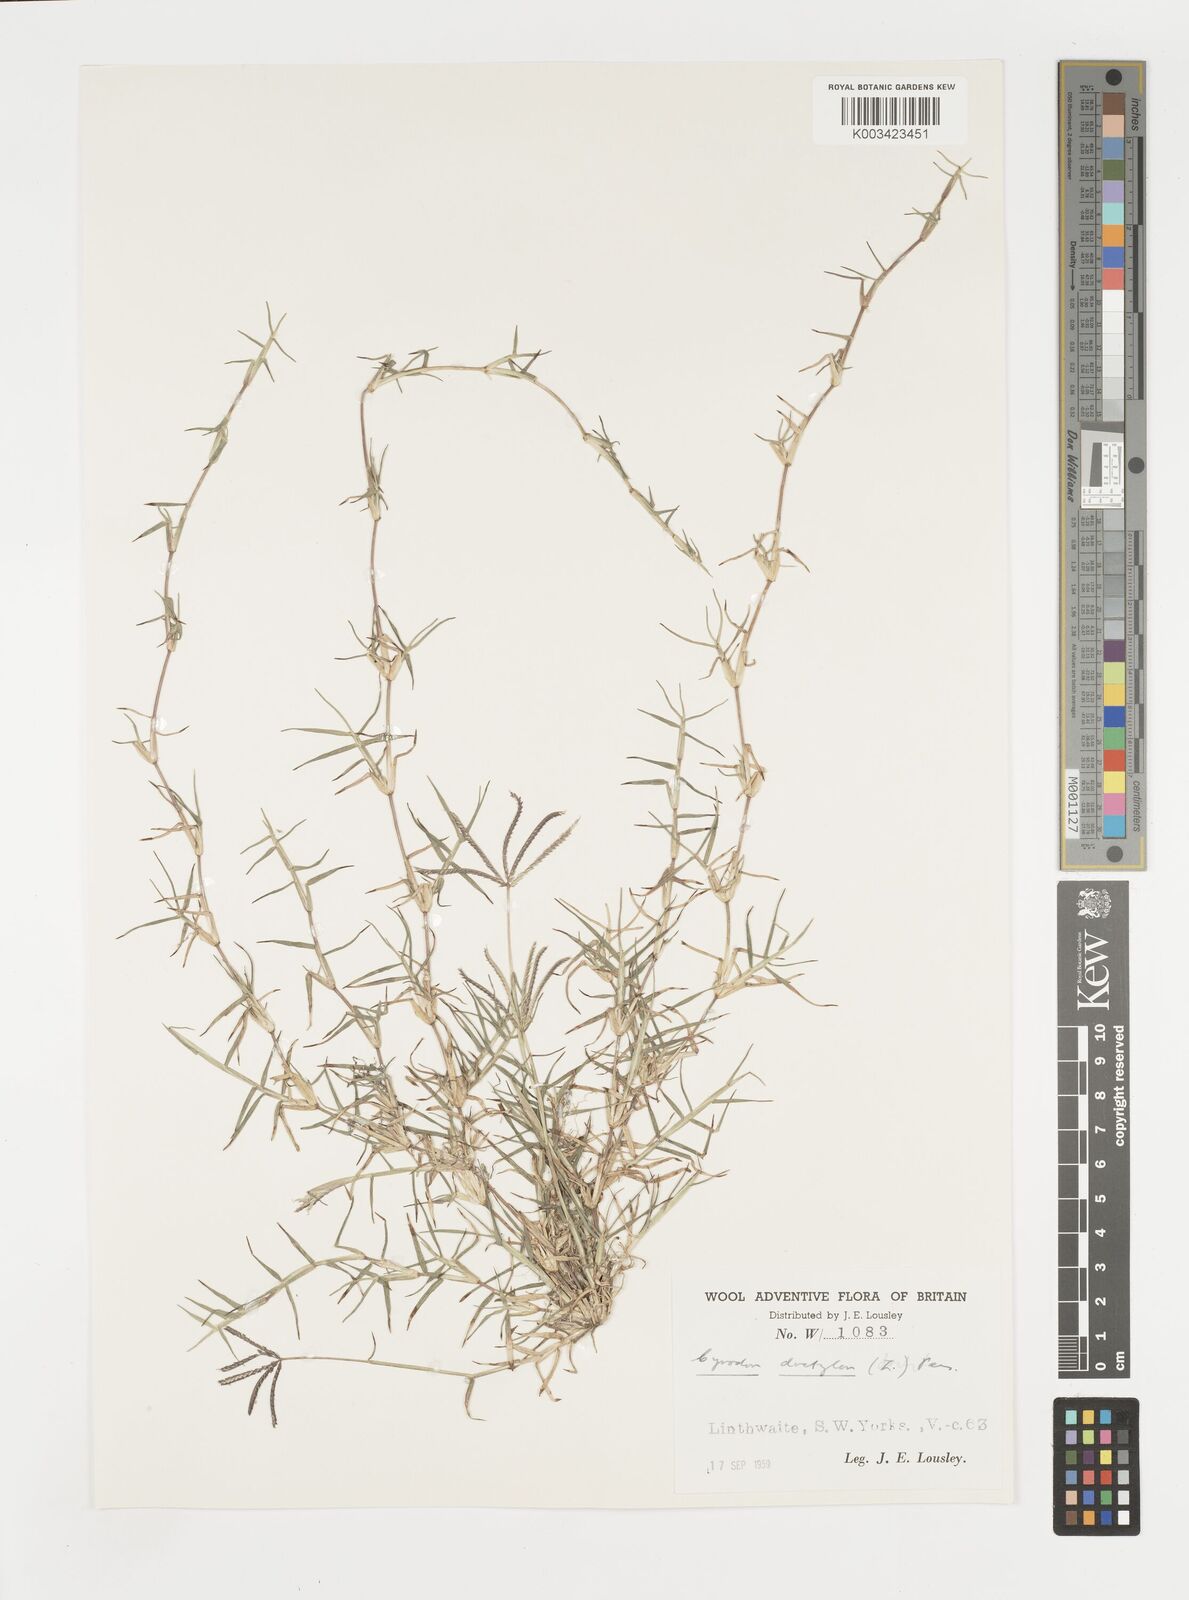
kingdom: Plantae
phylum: Tracheophyta
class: Liliopsida
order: Poales
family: Poaceae
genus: Cynodon
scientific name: Cynodon dactylon
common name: Bermuda grass
